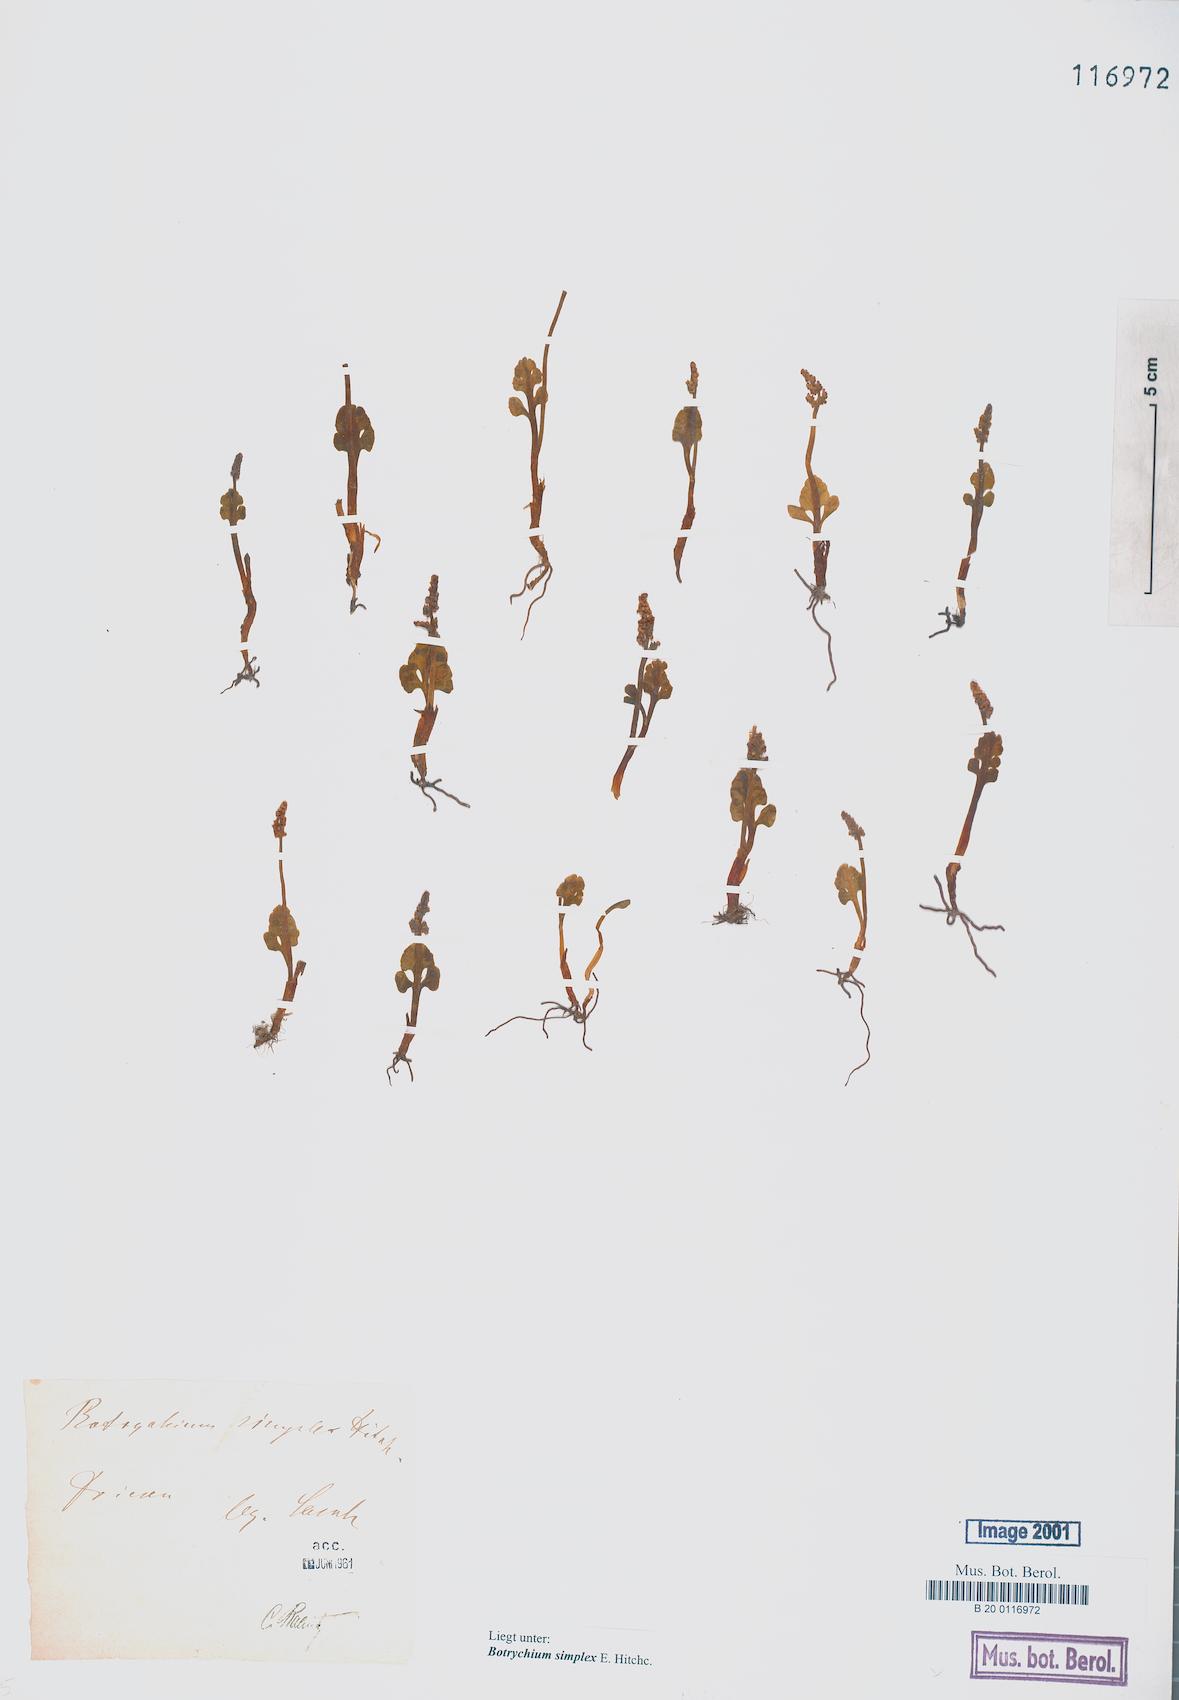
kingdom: Plantae
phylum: Tracheophyta
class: Polypodiopsida
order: Ophioglossales
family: Ophioglossaceae
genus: Botrychium
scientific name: Botrychium simplex
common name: Least moonwort
